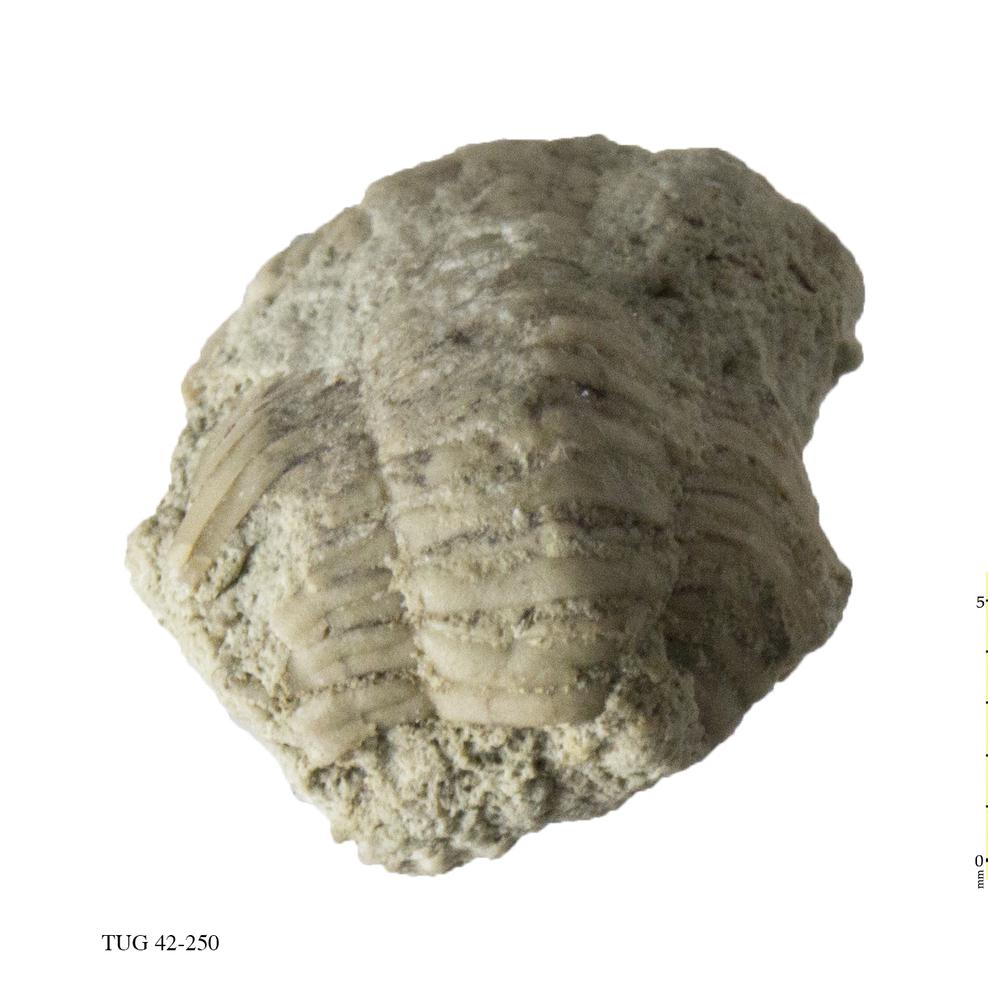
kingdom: Animalia
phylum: Arthropoda
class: Trilobita
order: Phacopida
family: Phacopidae
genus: Phacops
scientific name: Phacops
